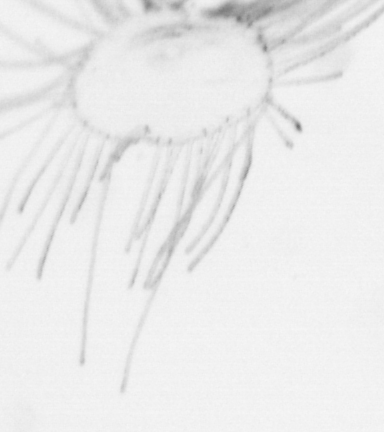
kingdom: Animalia
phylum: Cnidaria
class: Hydrozoa
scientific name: Hydrozoa
